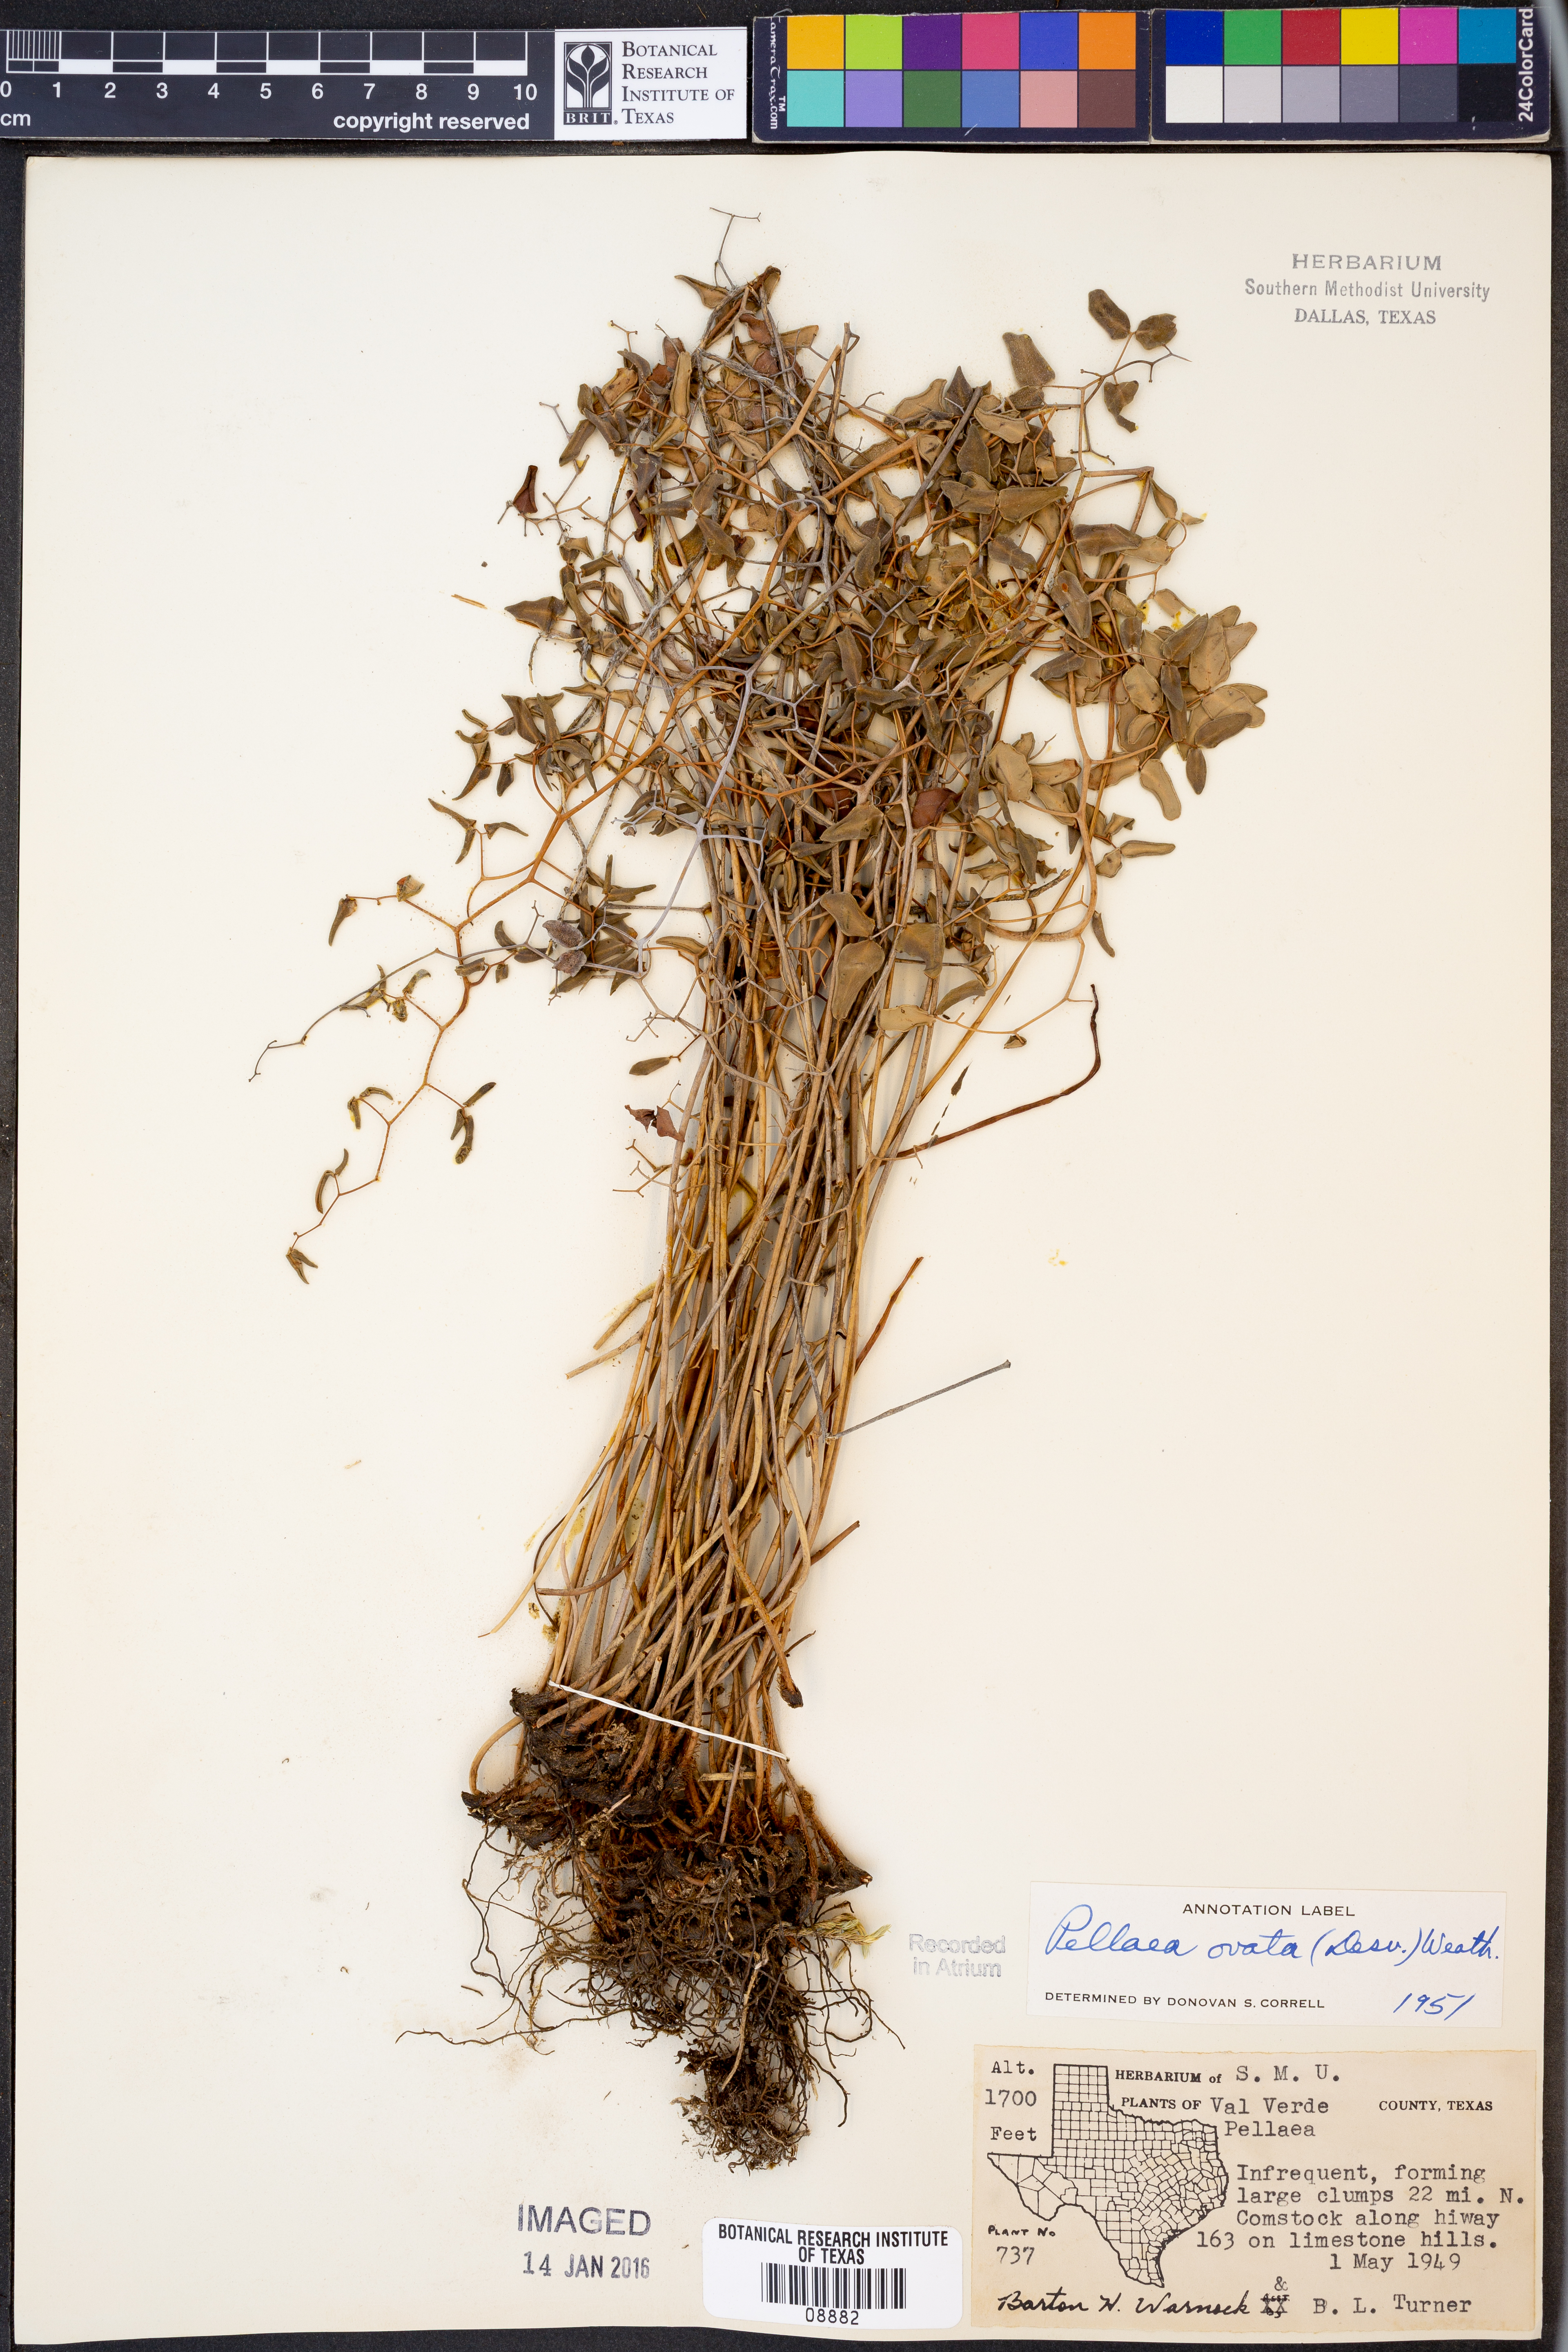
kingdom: Plantae
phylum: Tracheophyta
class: Polypodiopsida
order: Polypodiales
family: Pteridaceae
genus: Pellaea
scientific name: Pellaea ovata
